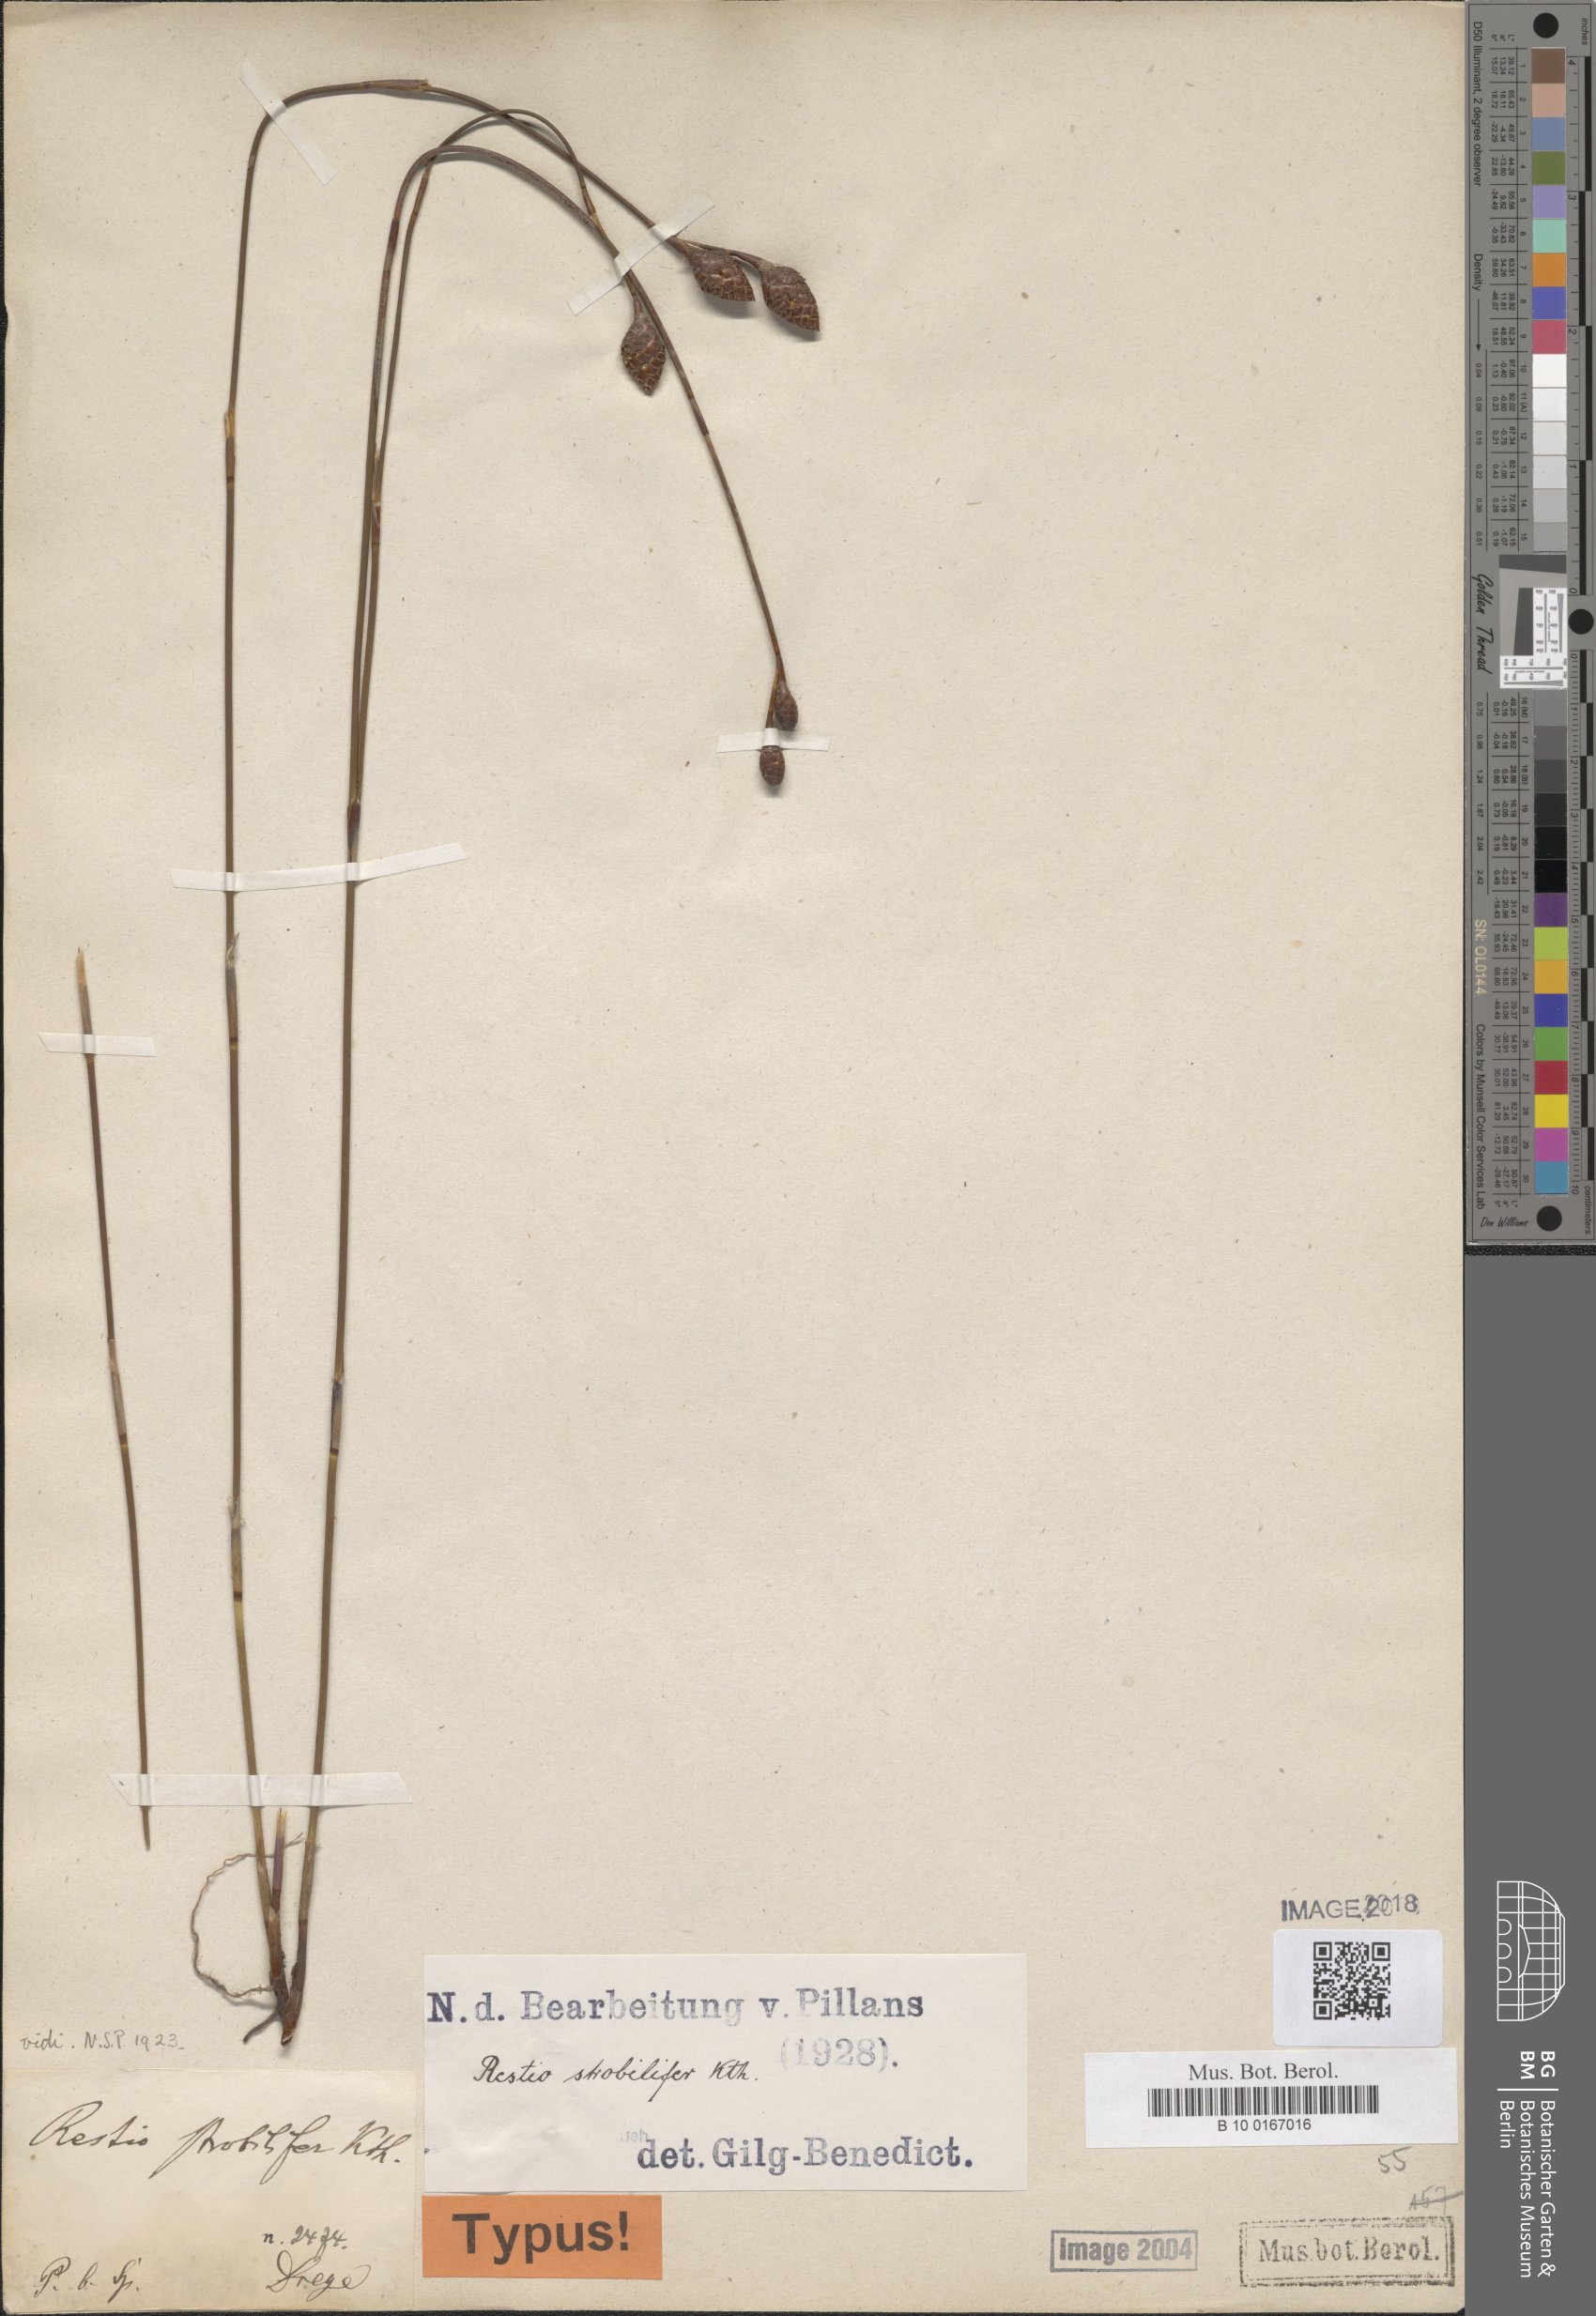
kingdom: Plantae
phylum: Tracheophyta
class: Liliopsida
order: Poales
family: Restionaceae
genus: Restio
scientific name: Restio strobilifer
